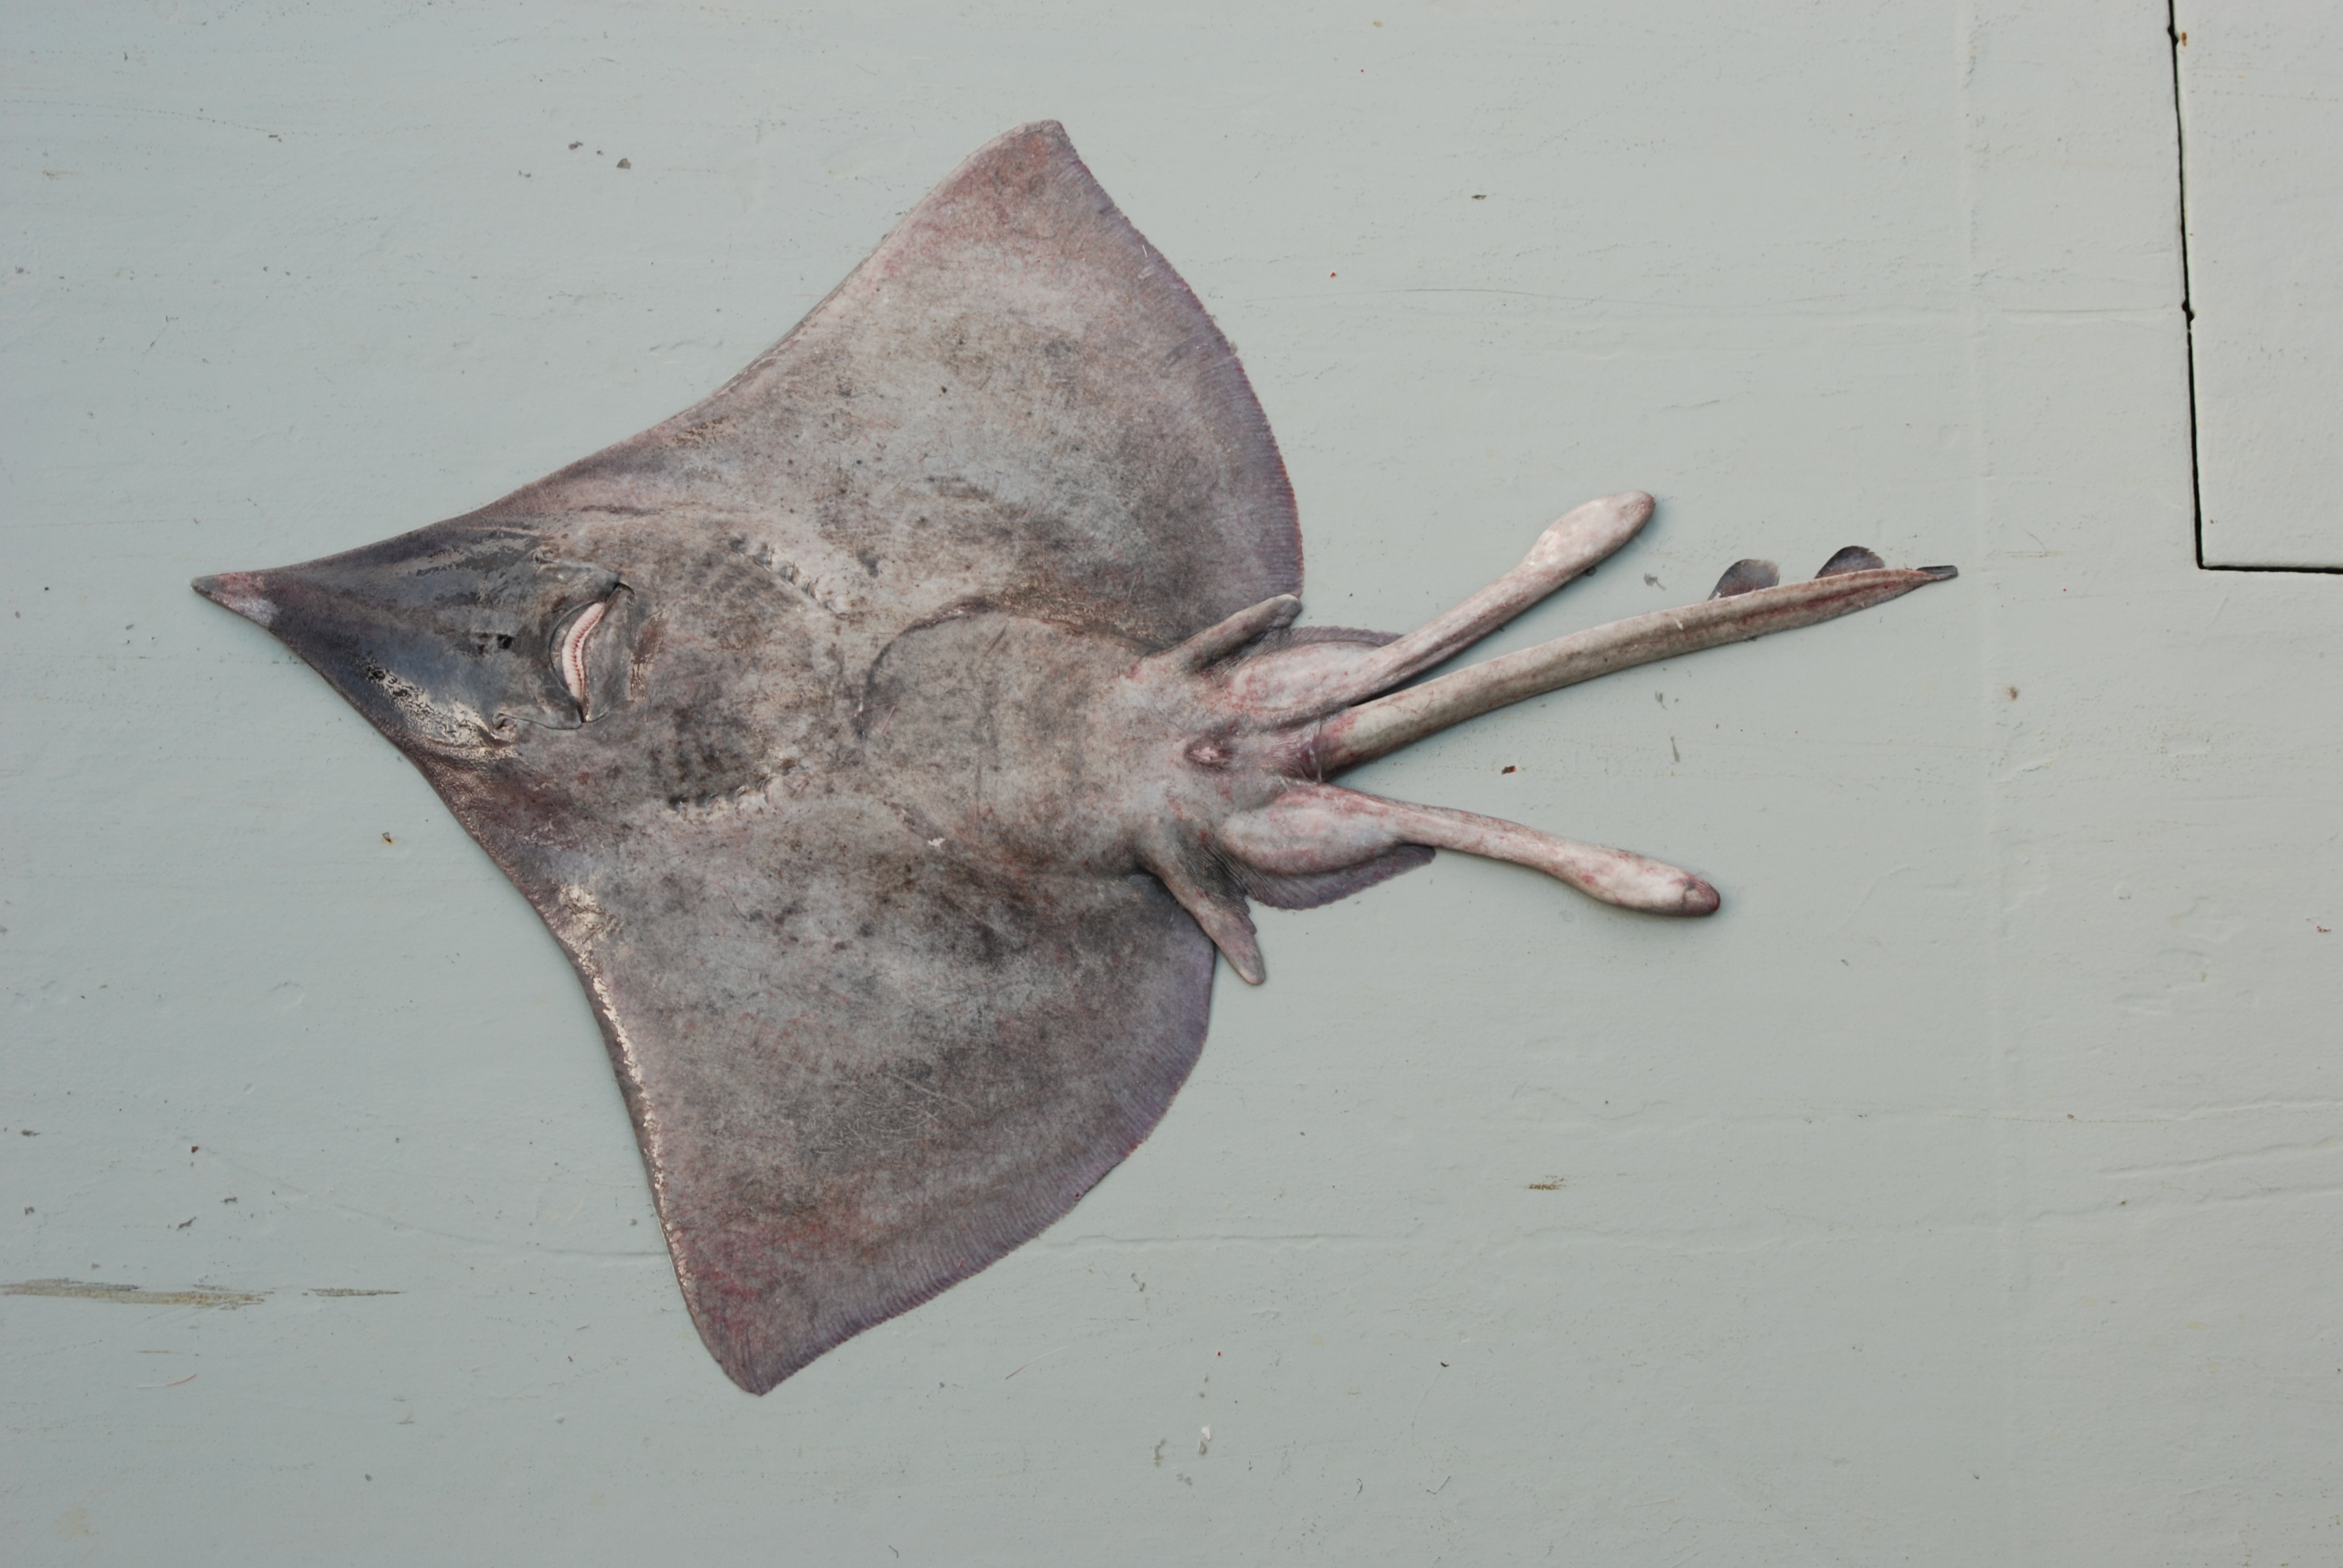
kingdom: Animalia
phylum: Chordata
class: Elasmobranchii
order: Rajiformes
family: Rajidae
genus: Dipturus
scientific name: Dipturus stenorhynchus
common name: Prownose skate
